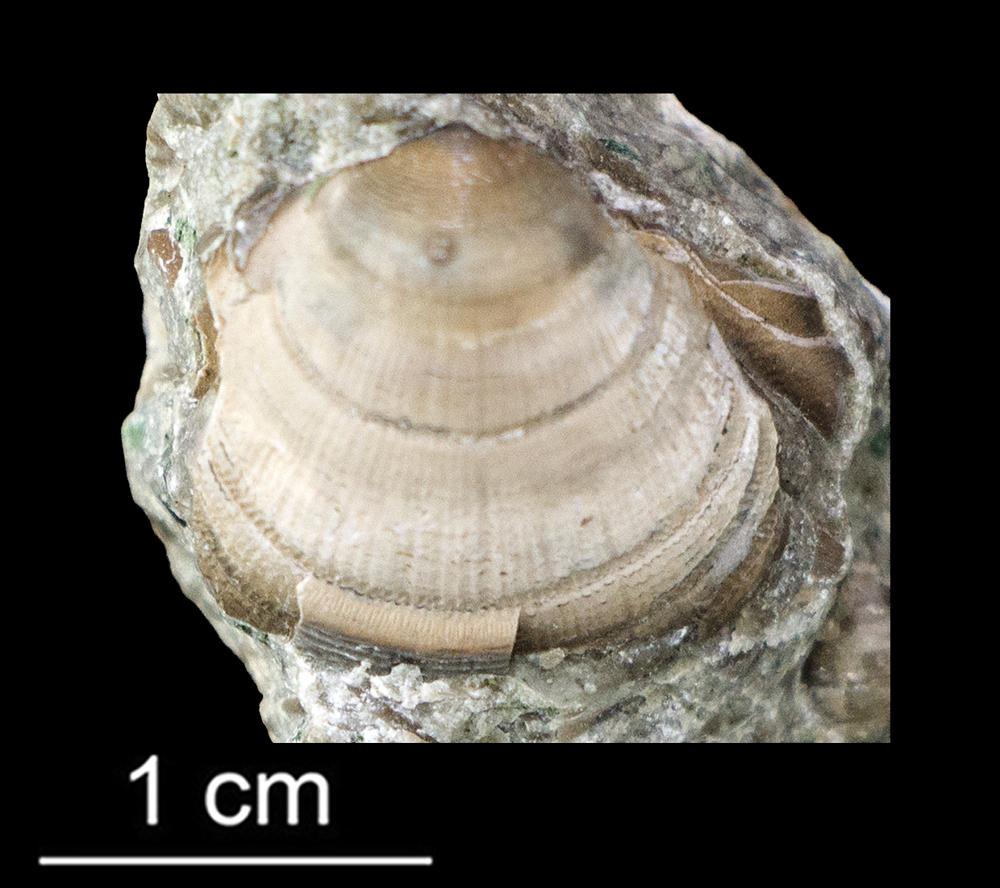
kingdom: Animalia
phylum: Brachiopoda
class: Lingulata
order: Lingulida
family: Zhanatellidae
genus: Thysanotos
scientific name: Thysanotos
